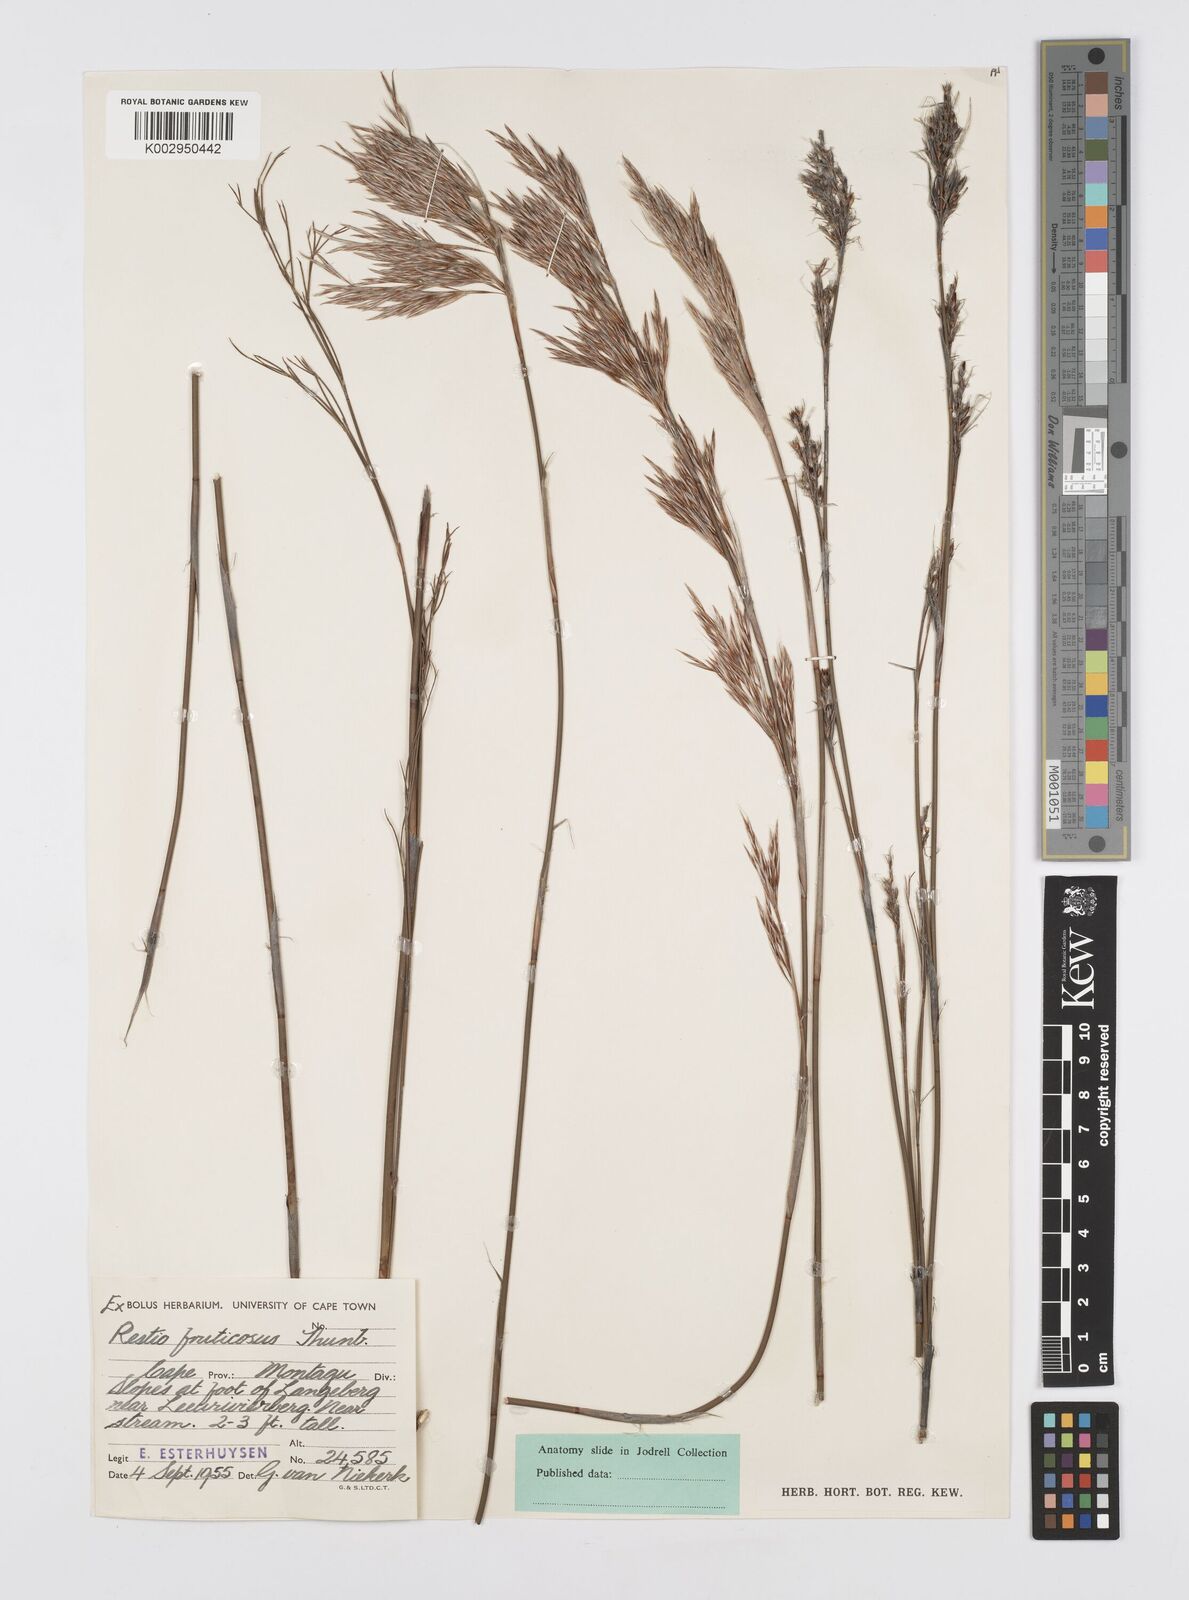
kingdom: Plantae
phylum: Tracheophyta
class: Liliopsida
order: Poales
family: Restionaceae
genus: Rhodocoma
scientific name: Rhodocoma fruticosa
